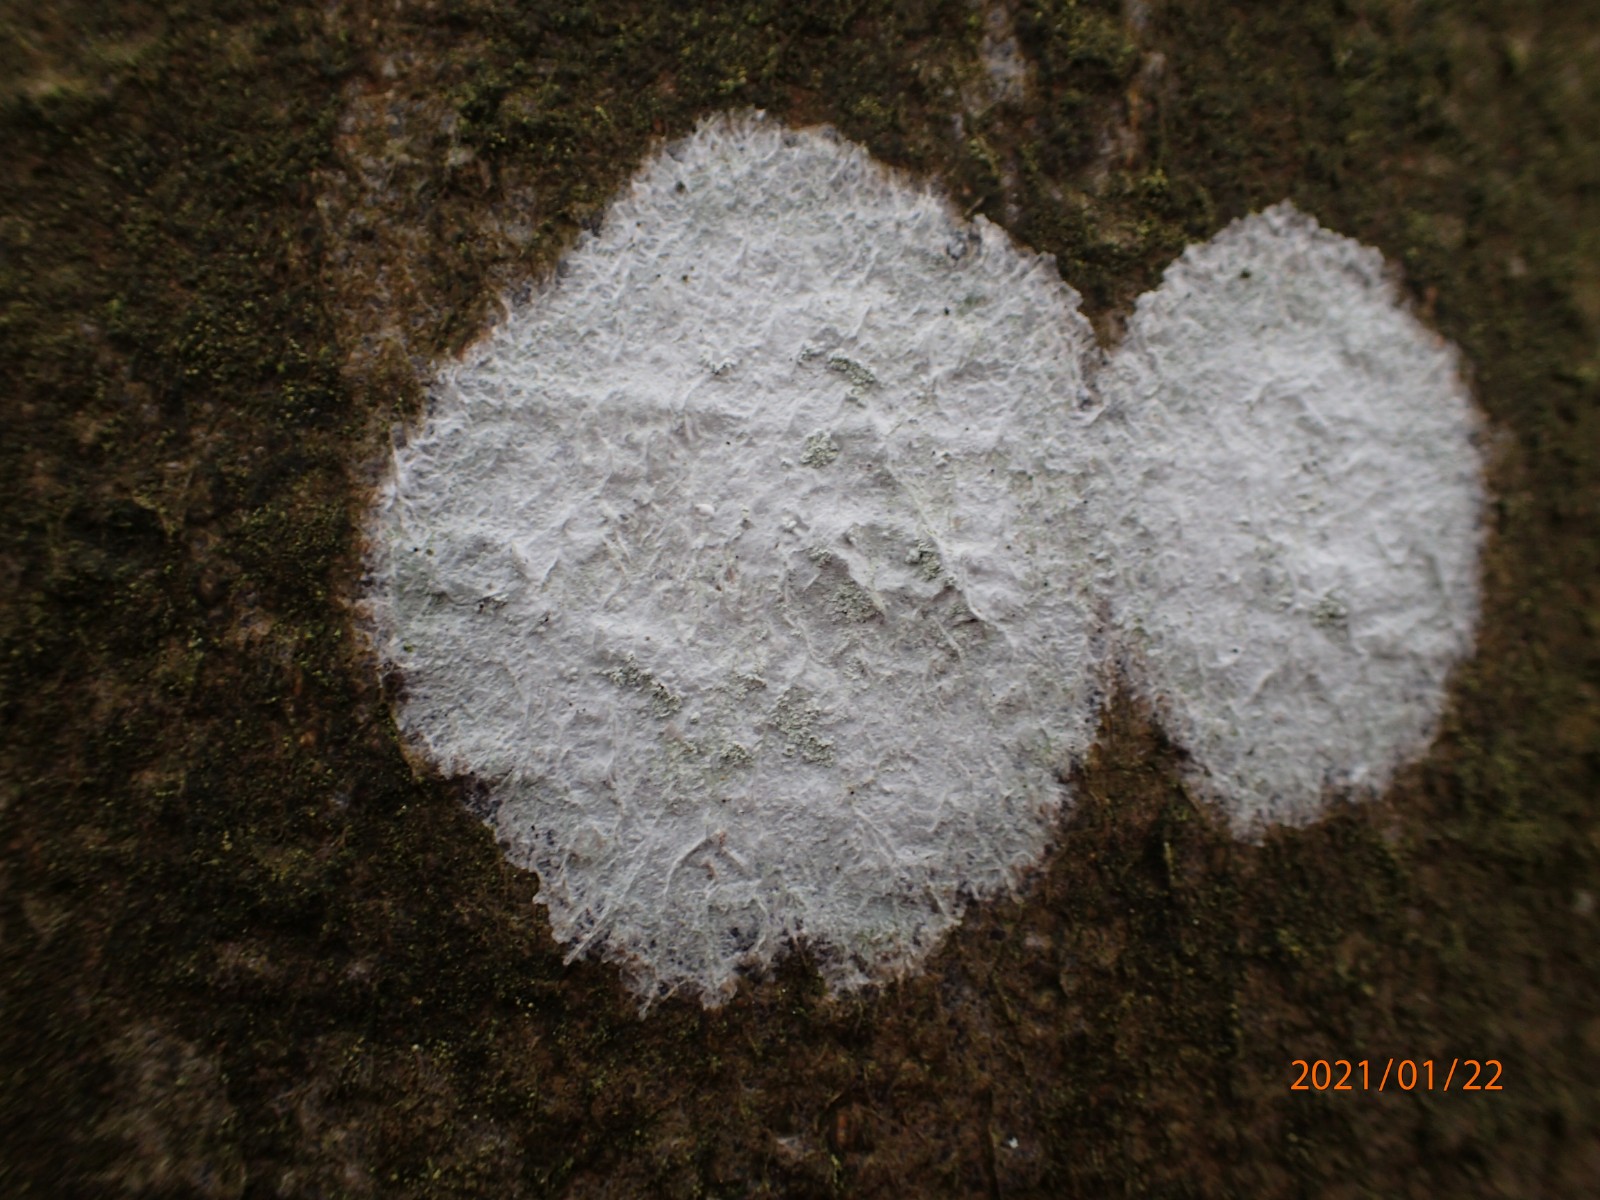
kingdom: Fungi
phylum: Ascomycota
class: Lecanoromycetes
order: Ostropales
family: Phlyctidaceae
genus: Phlyctis
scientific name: Phlyctis argena
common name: almindelig sølvlav
